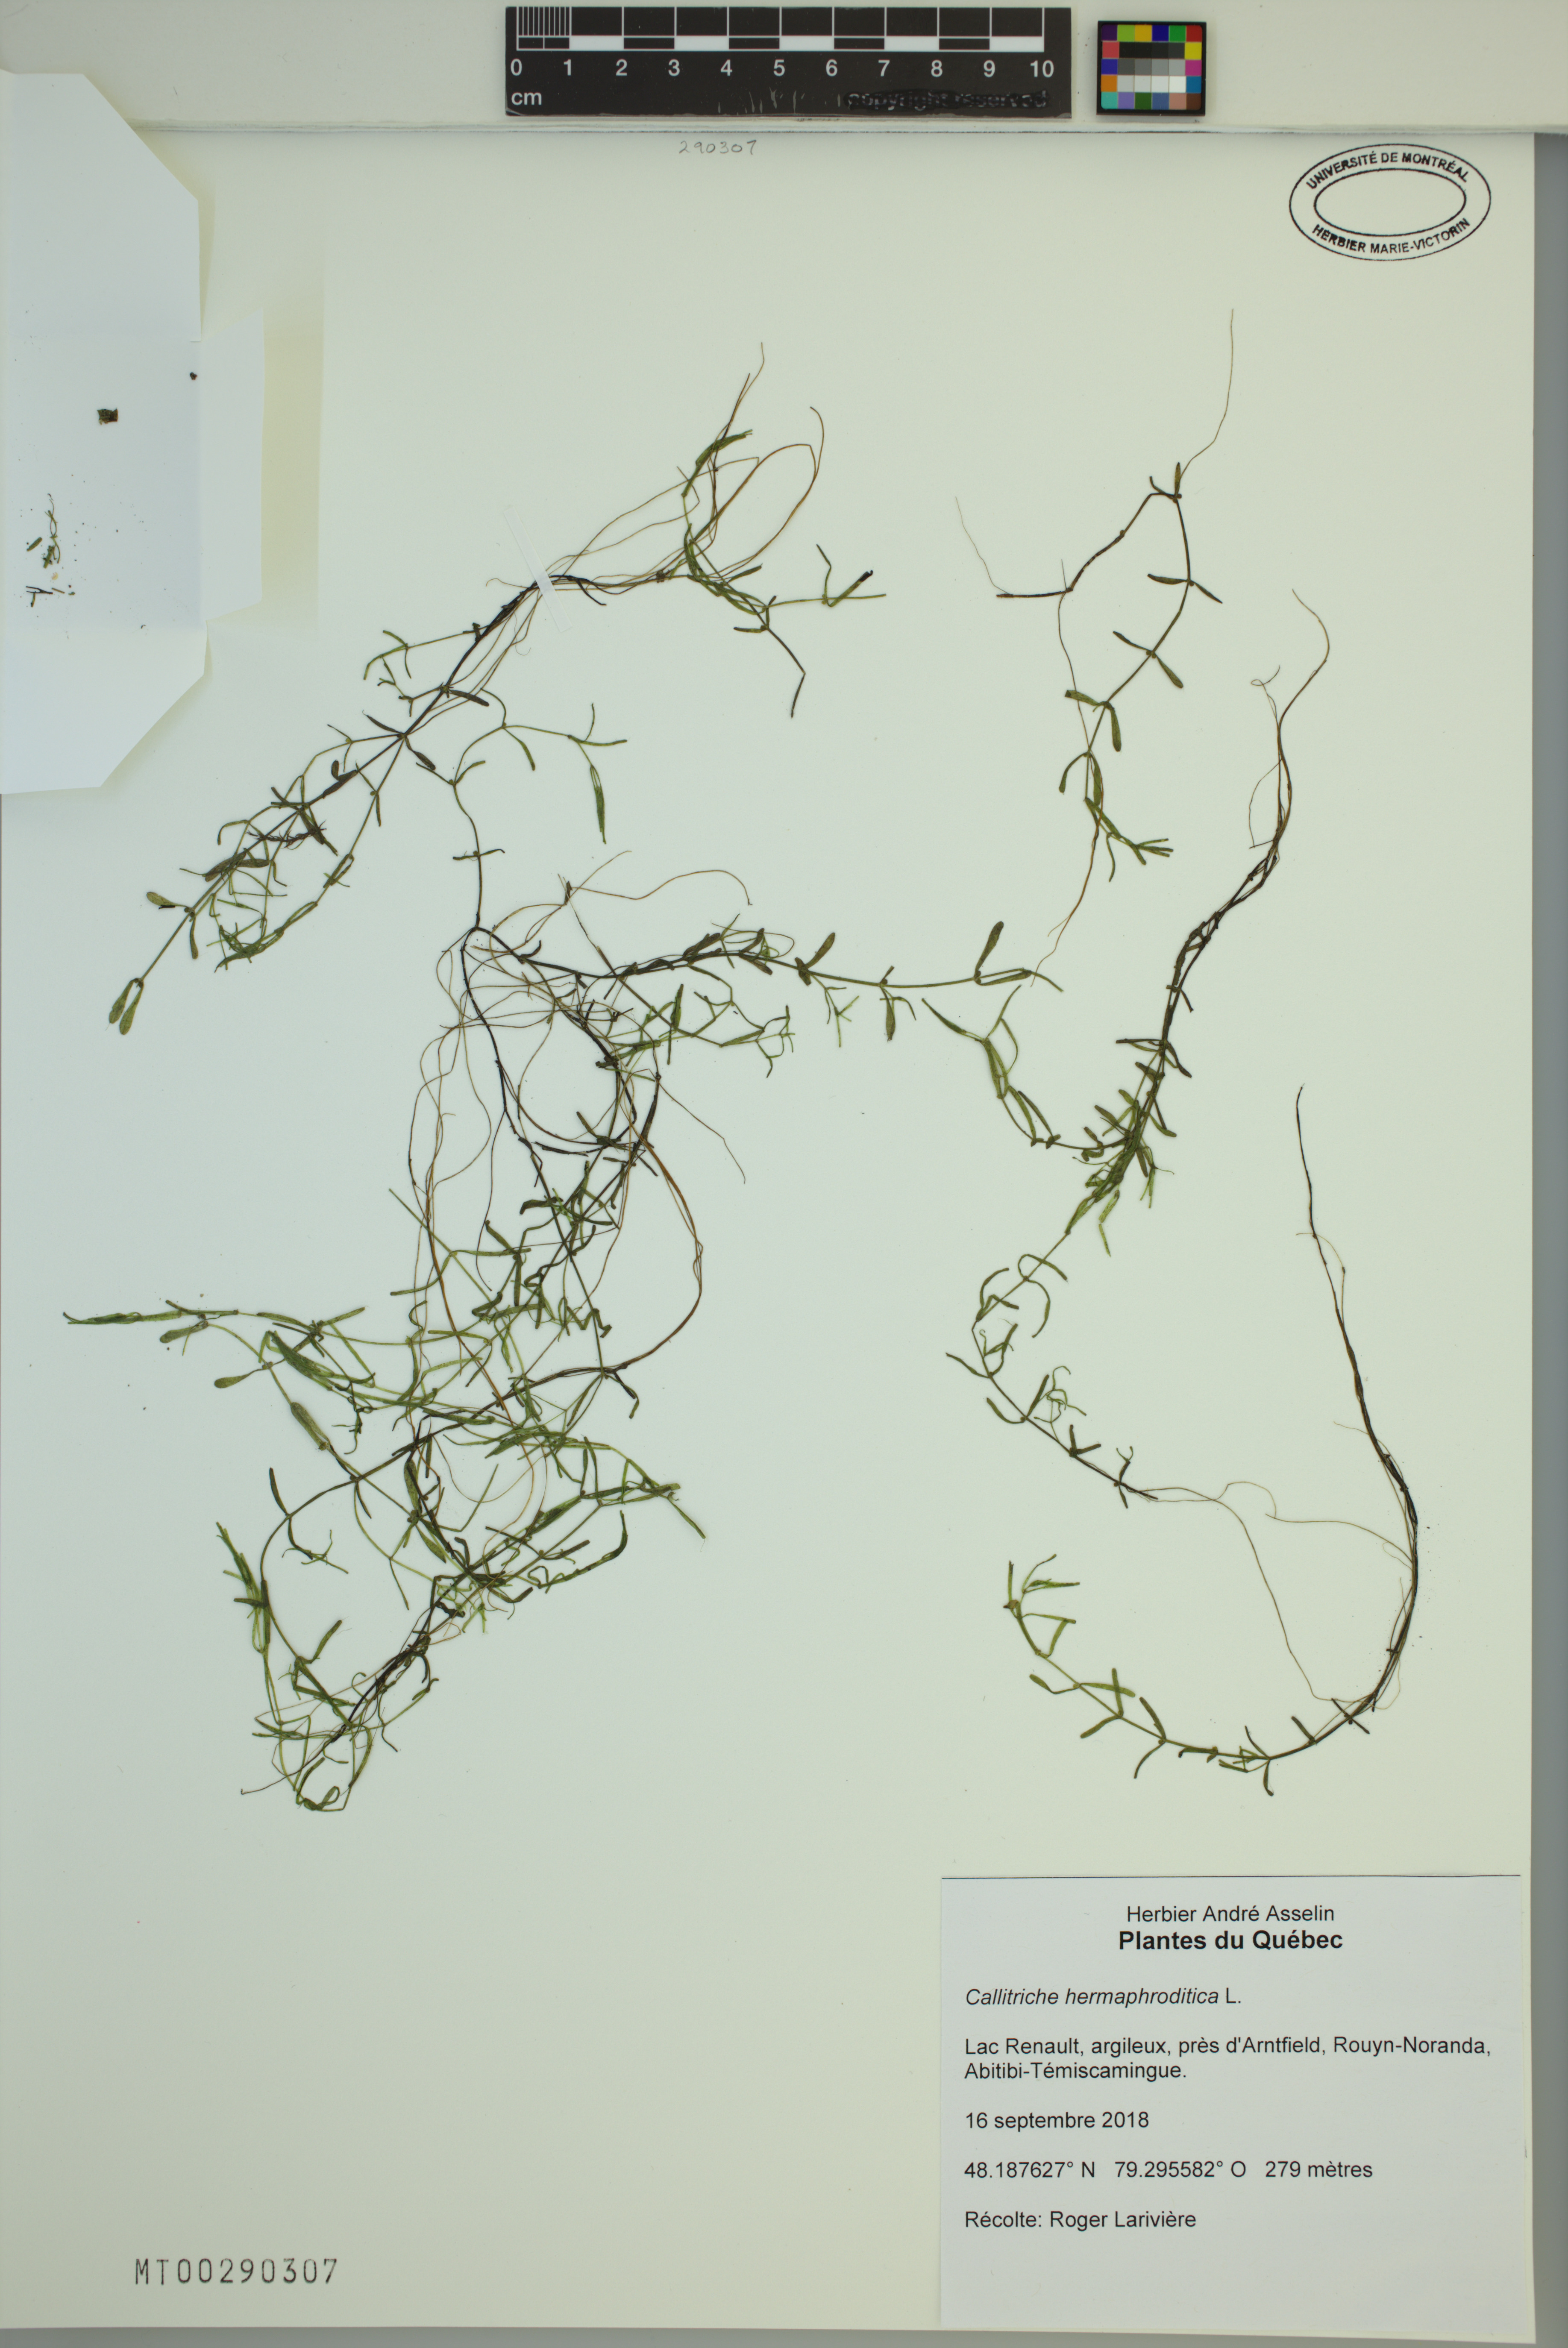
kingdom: Plantae
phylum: Tracheophyta
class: Magnoliopsida
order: Lamiales
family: Plantaginaceae
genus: Callitriche
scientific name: Callitriche hermaphroditica
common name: Autumnal water-starwort
